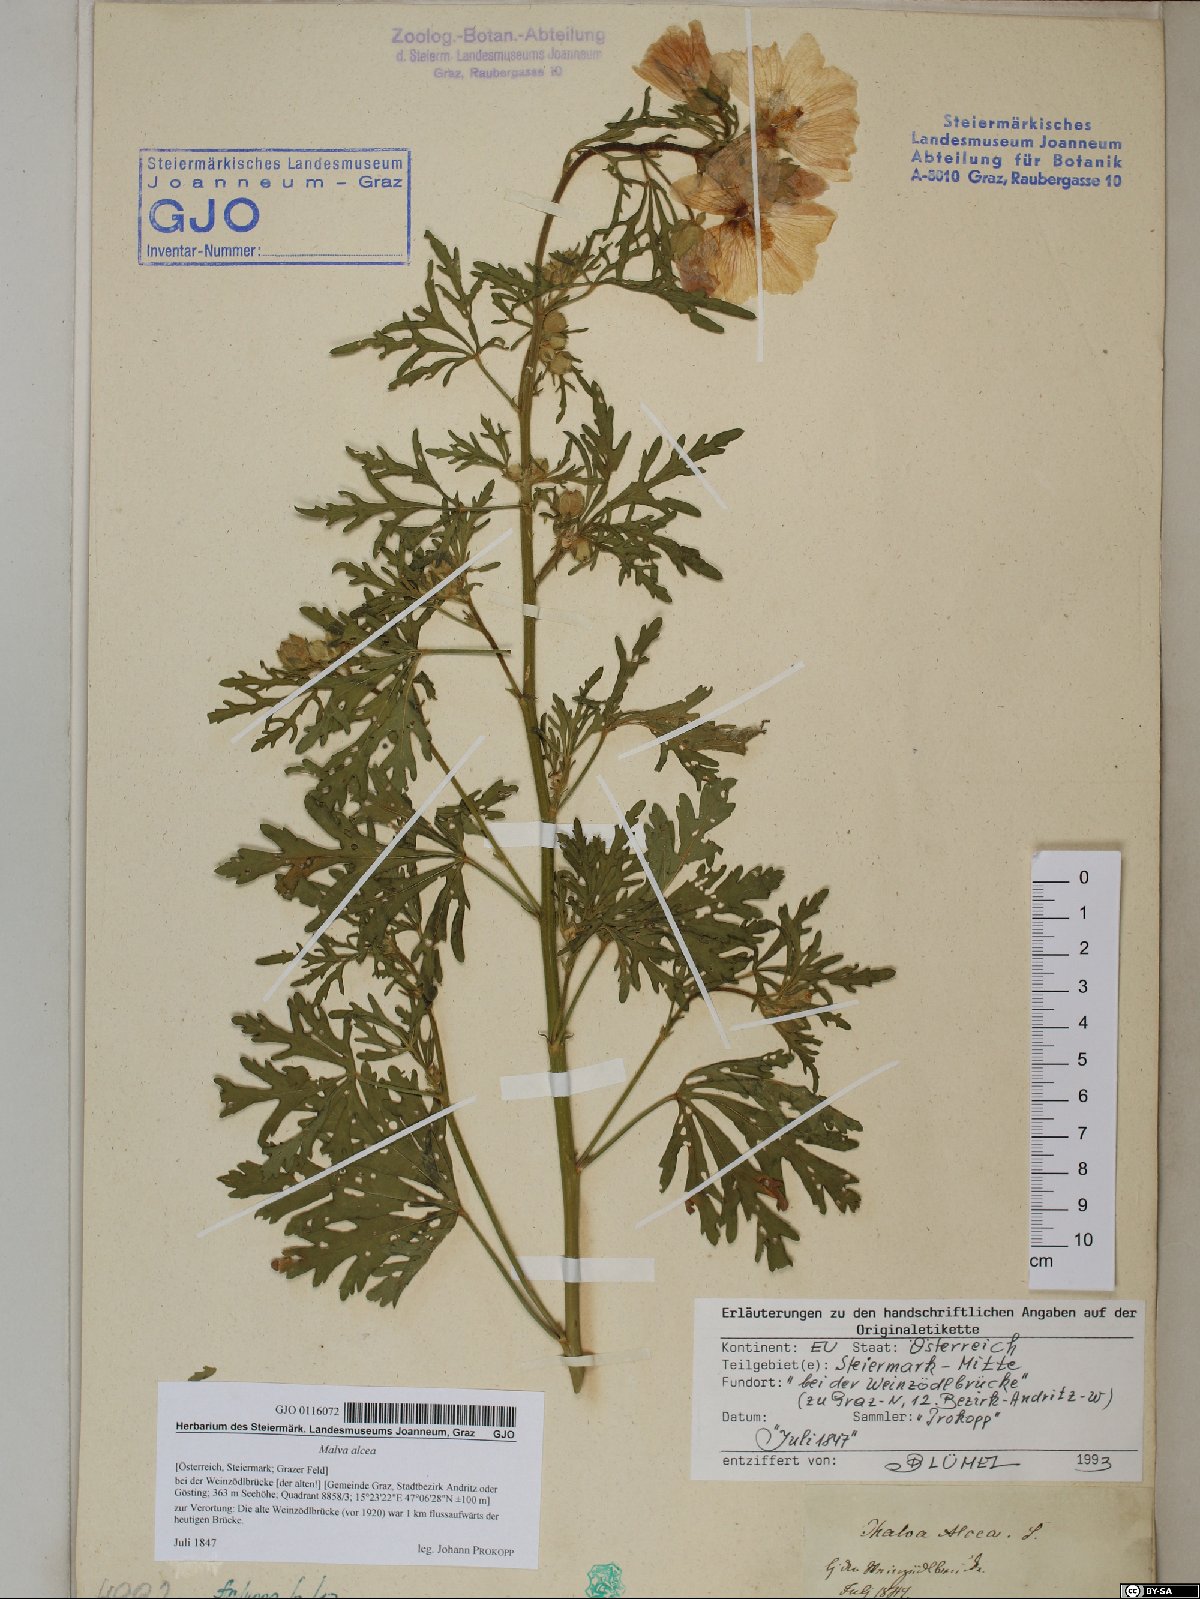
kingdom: Plantae
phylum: Tracheophyta
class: Magnoliopsida
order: Malvales
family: Malvaceae
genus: Malva
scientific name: Malva alcea
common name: Greater musk-mallow
